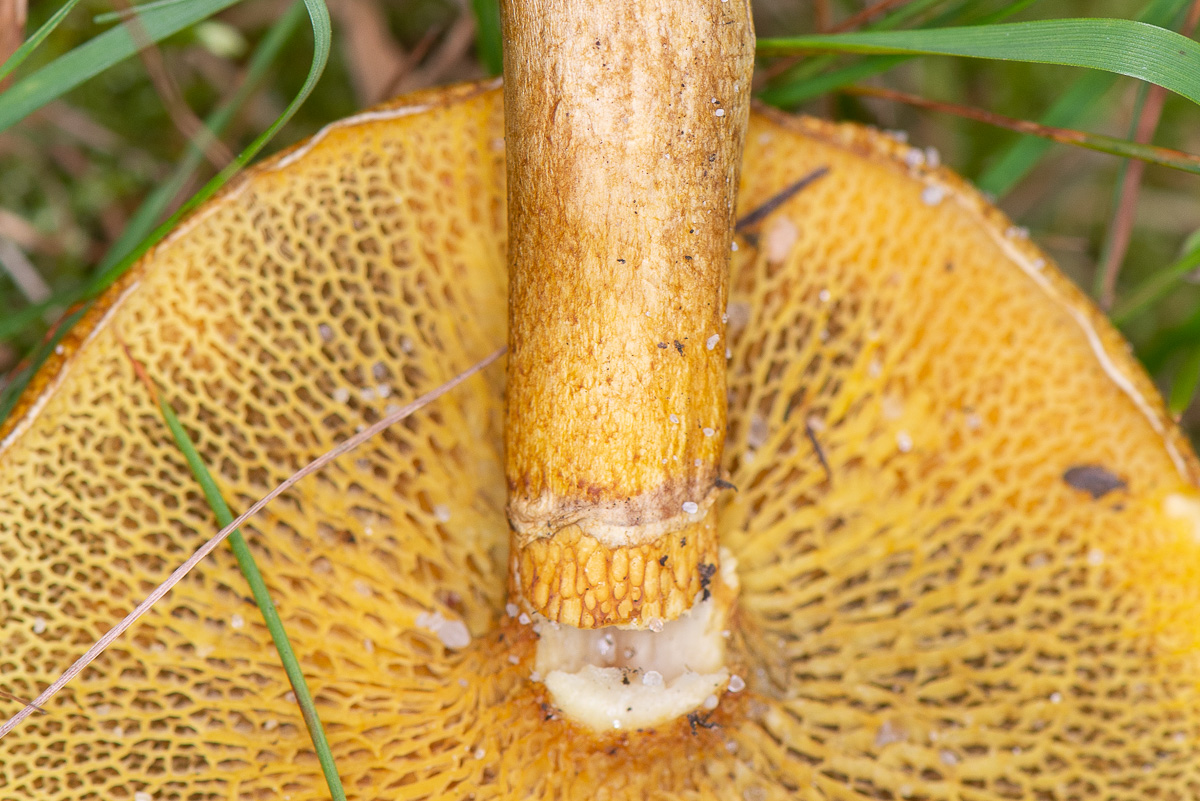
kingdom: Fungi
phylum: Basidiomycota
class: Agaricomycetes
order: Boletales
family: Suillaceae
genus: Suillus
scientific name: Suillus cavipes
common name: hulstokket slimrørhat, gul form
